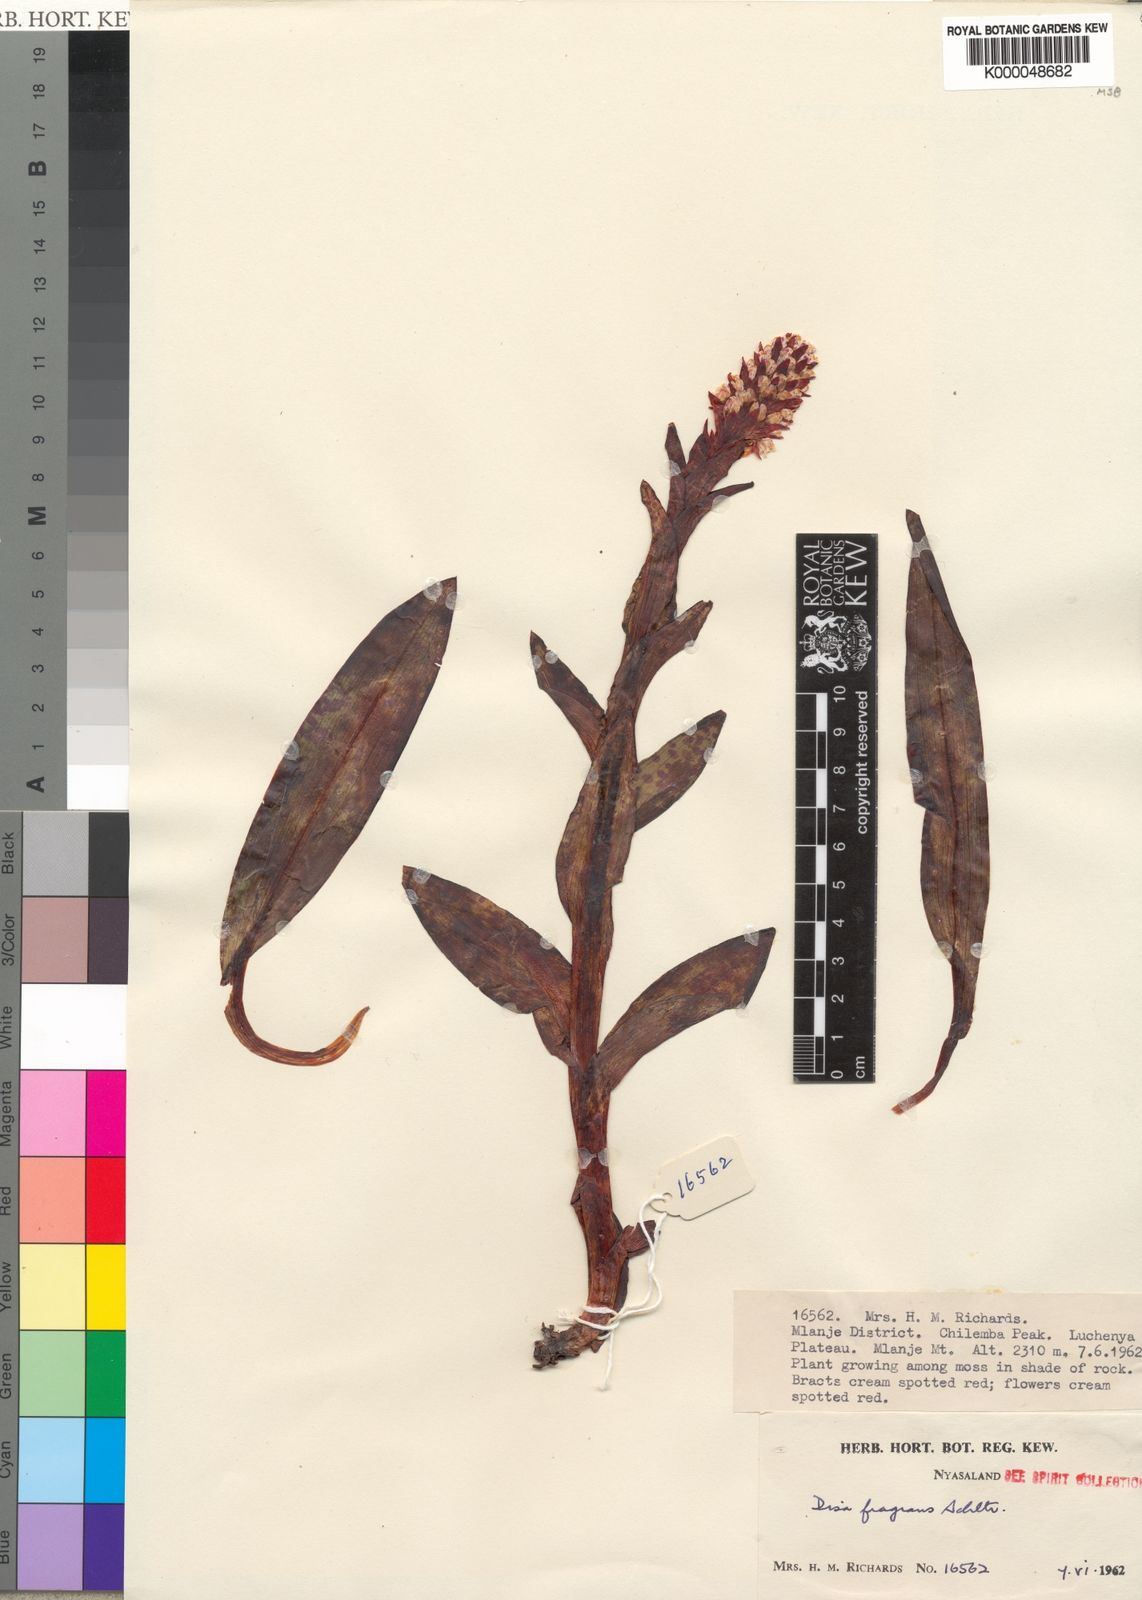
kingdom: Plantae
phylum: Tracheophyta
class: Liliopsida
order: Asparagales
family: Orchidaceae
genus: Disa
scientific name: Disa fragrans
